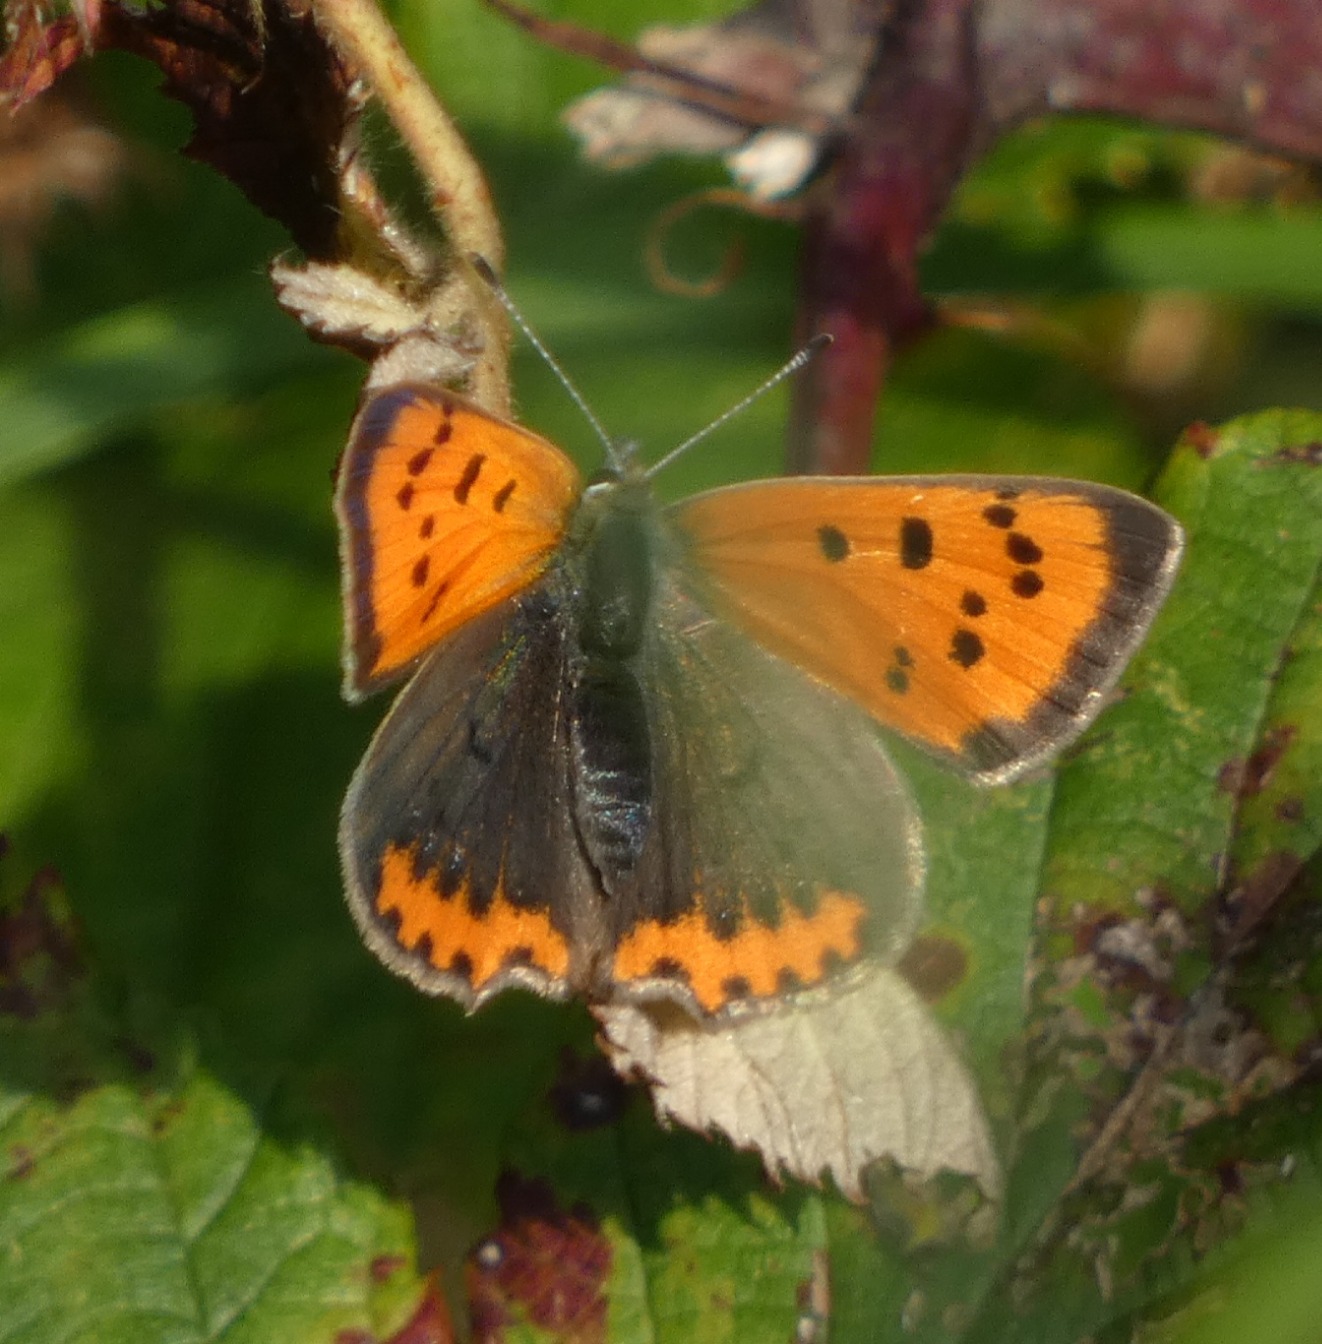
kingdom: Animalia
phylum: Arthropoda
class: Insecta
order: Lepidoptera
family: Lycaenidae
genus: Lycaena
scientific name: Lycaena phlaeas
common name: Lille ildfugl
